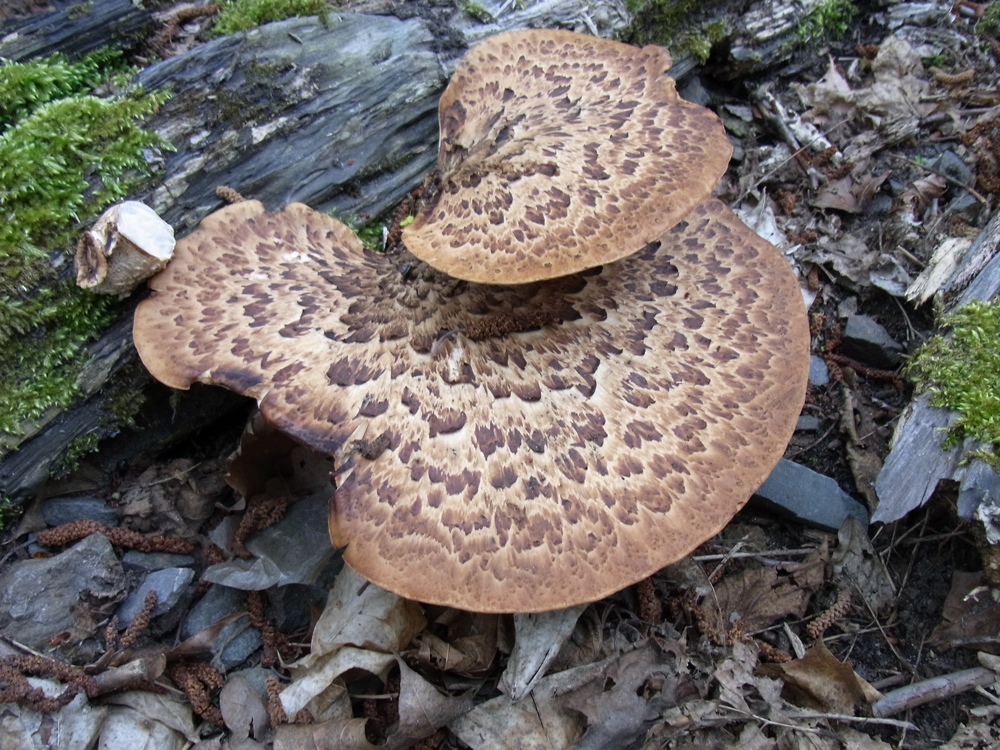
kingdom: Fungi
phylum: Basidiomycota
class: Agaricomycetes
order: Polyporales
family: Polyporaceae
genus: Cerioporus
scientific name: Cerioporus squamosus
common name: Dryad's saddle
